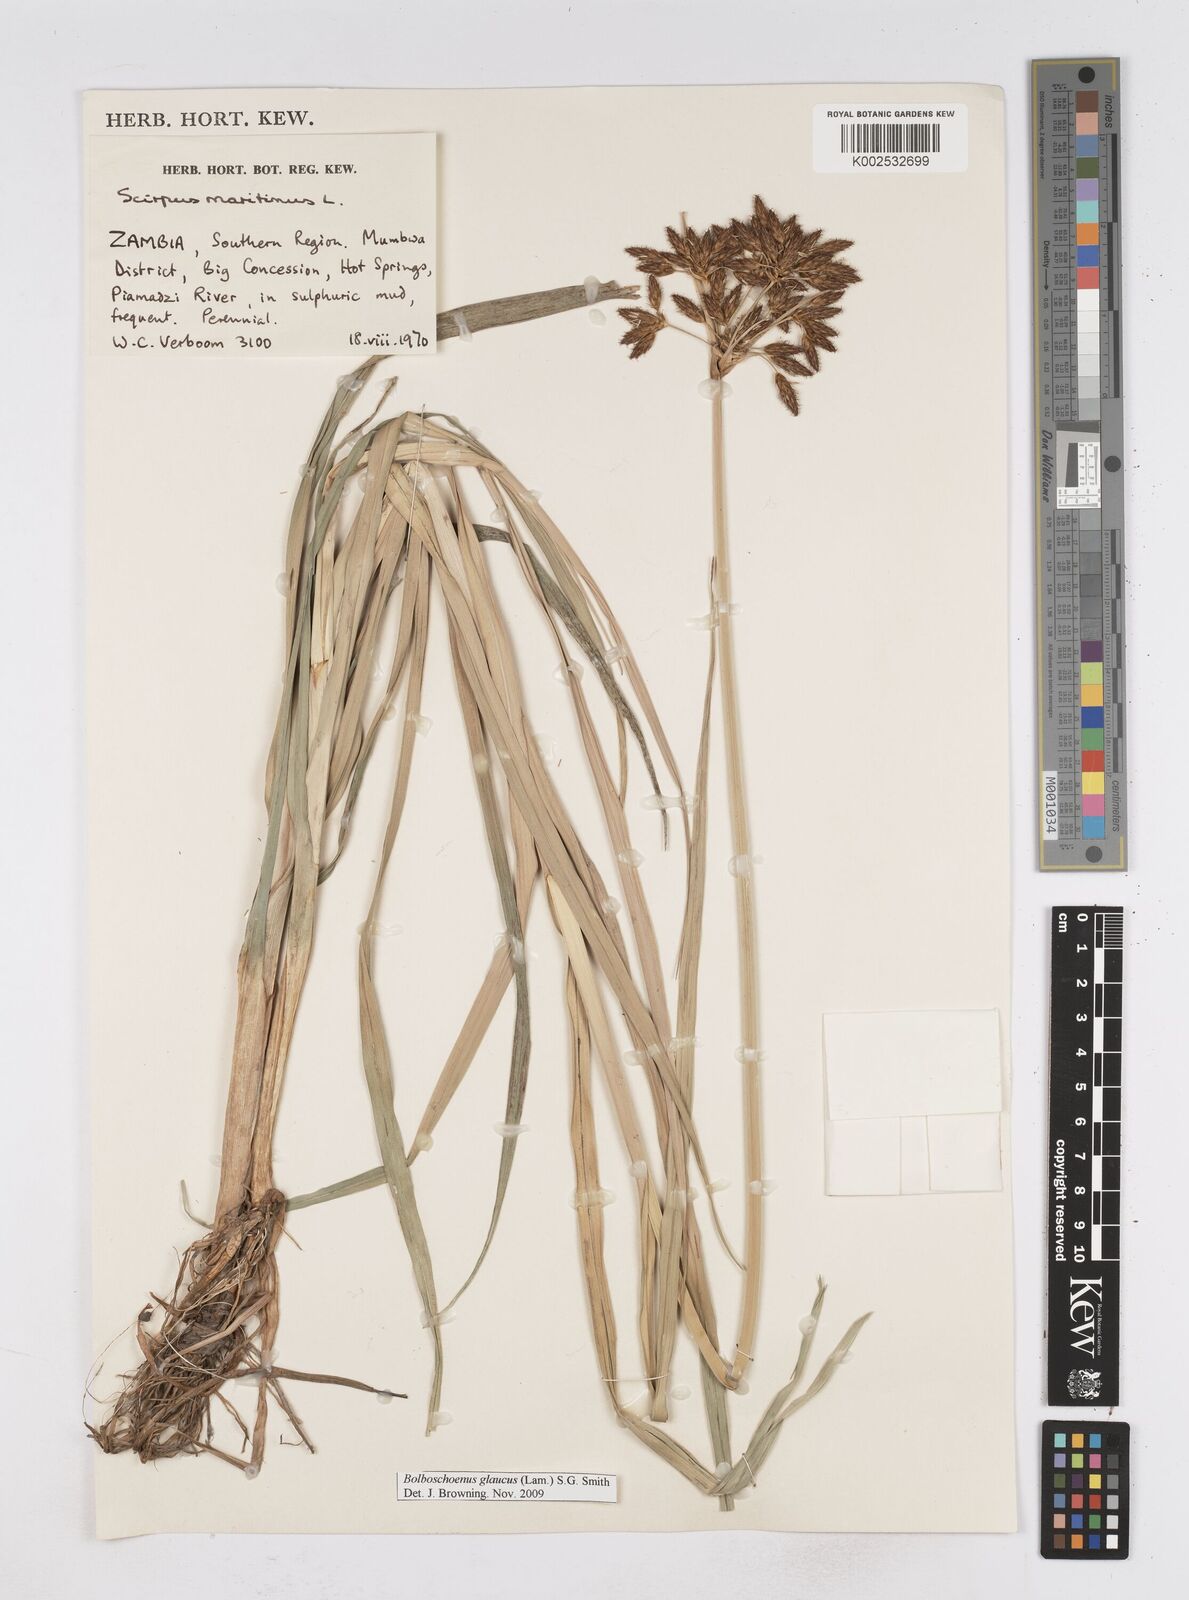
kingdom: Plantae
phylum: Tracheophyta
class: Liliopsida
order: Poales
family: Cyperaceae
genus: Bolboschoenus
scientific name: Bolboschoenus glaucus
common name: Tuberous bulrush
